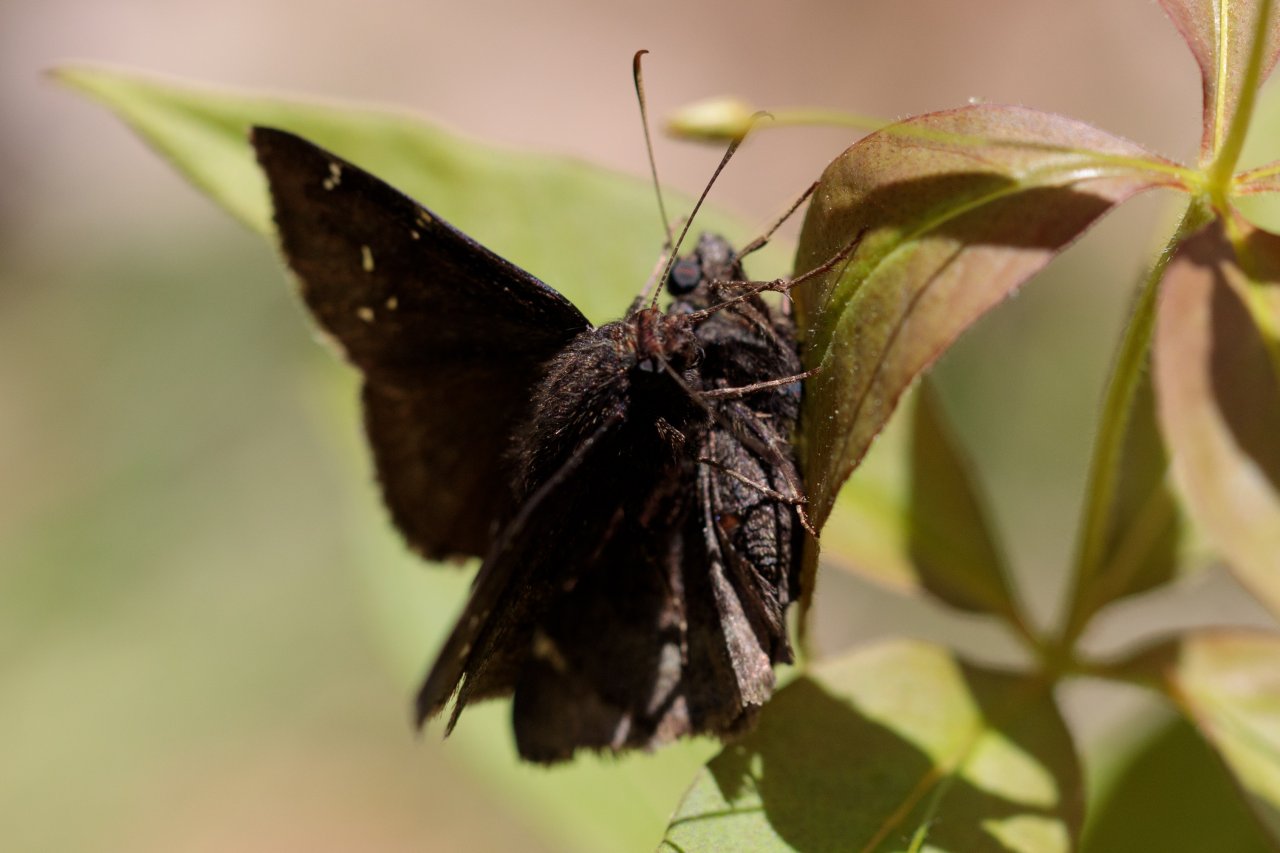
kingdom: Animalia
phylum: Arthropoda
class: Insecta
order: Lepidoptera
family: Hesperiidae
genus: Autochton
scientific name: Autochton
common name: Northern Cloudywing
